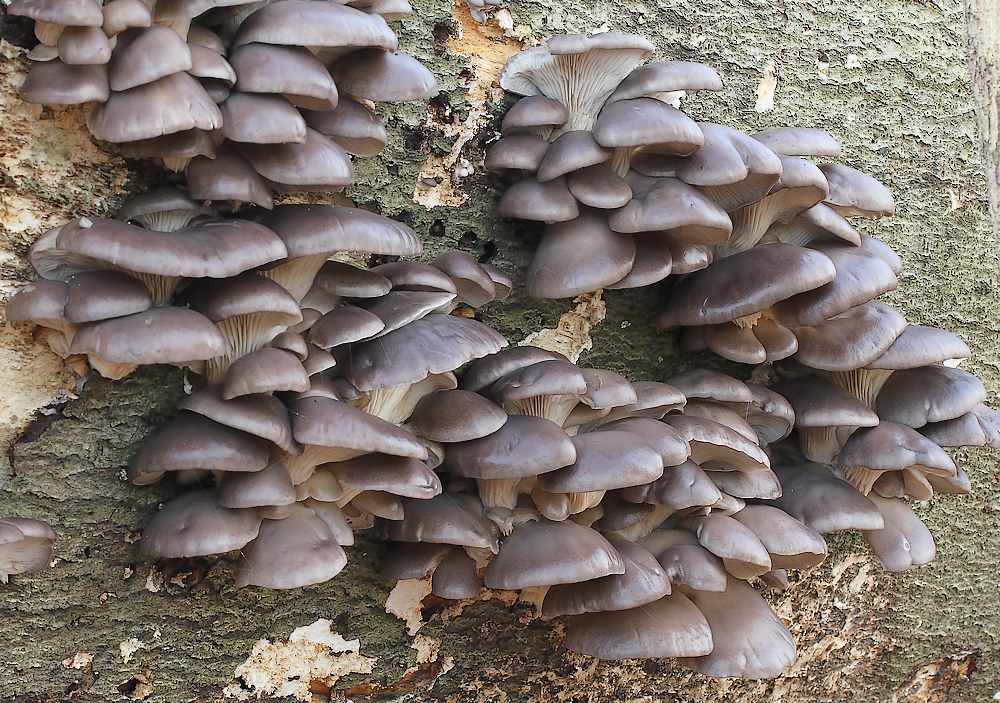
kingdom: Fungi
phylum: Basidiomycota
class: Agaricomycetes
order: Agaricales
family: Pleurotaceae
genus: Pleurotus
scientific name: Pleurotus ostreatus
